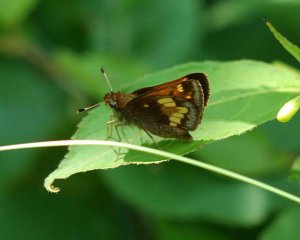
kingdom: Animalia
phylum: Arthropoda
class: Insecta
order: Lepidoptera
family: Hesperiidae
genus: Lon
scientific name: Lon hobomok
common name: Hobomok Skipper
